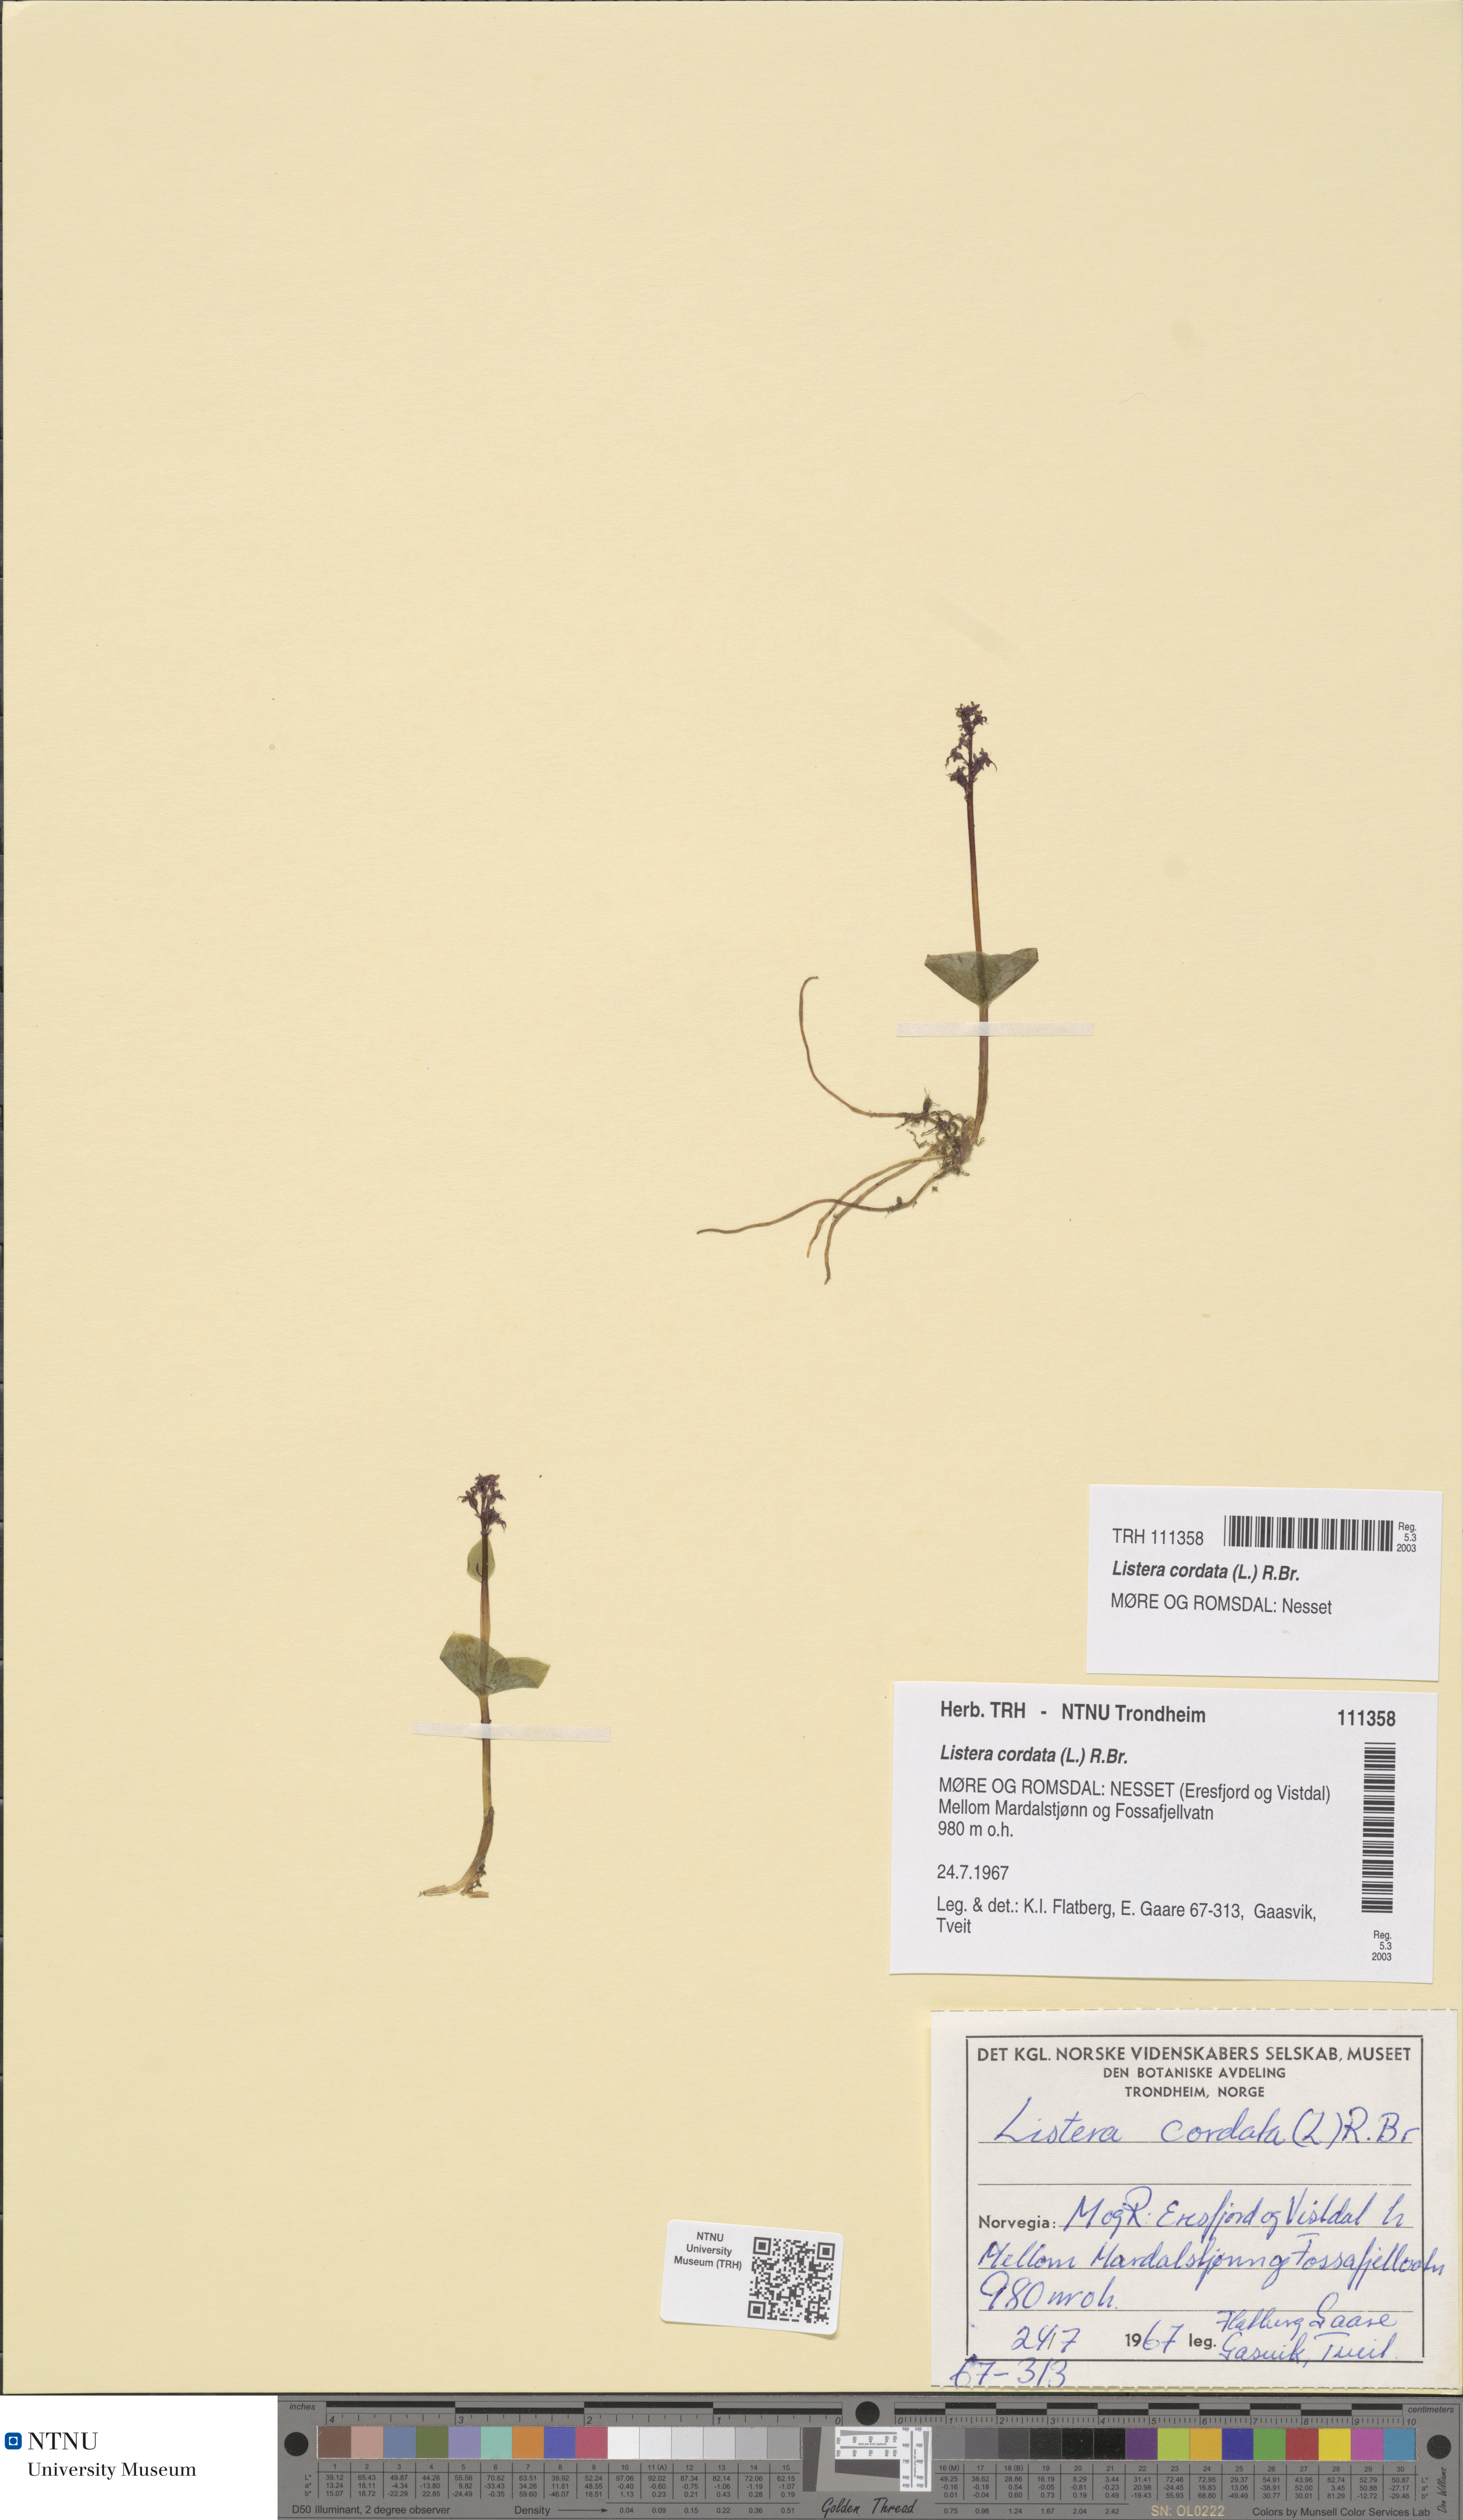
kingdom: Plantae
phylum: Tracheophyta
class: Liliopsida
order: Asparagales
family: Orchidaceae
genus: Neottia
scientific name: Neottia cordata
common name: Lesser twayblade
